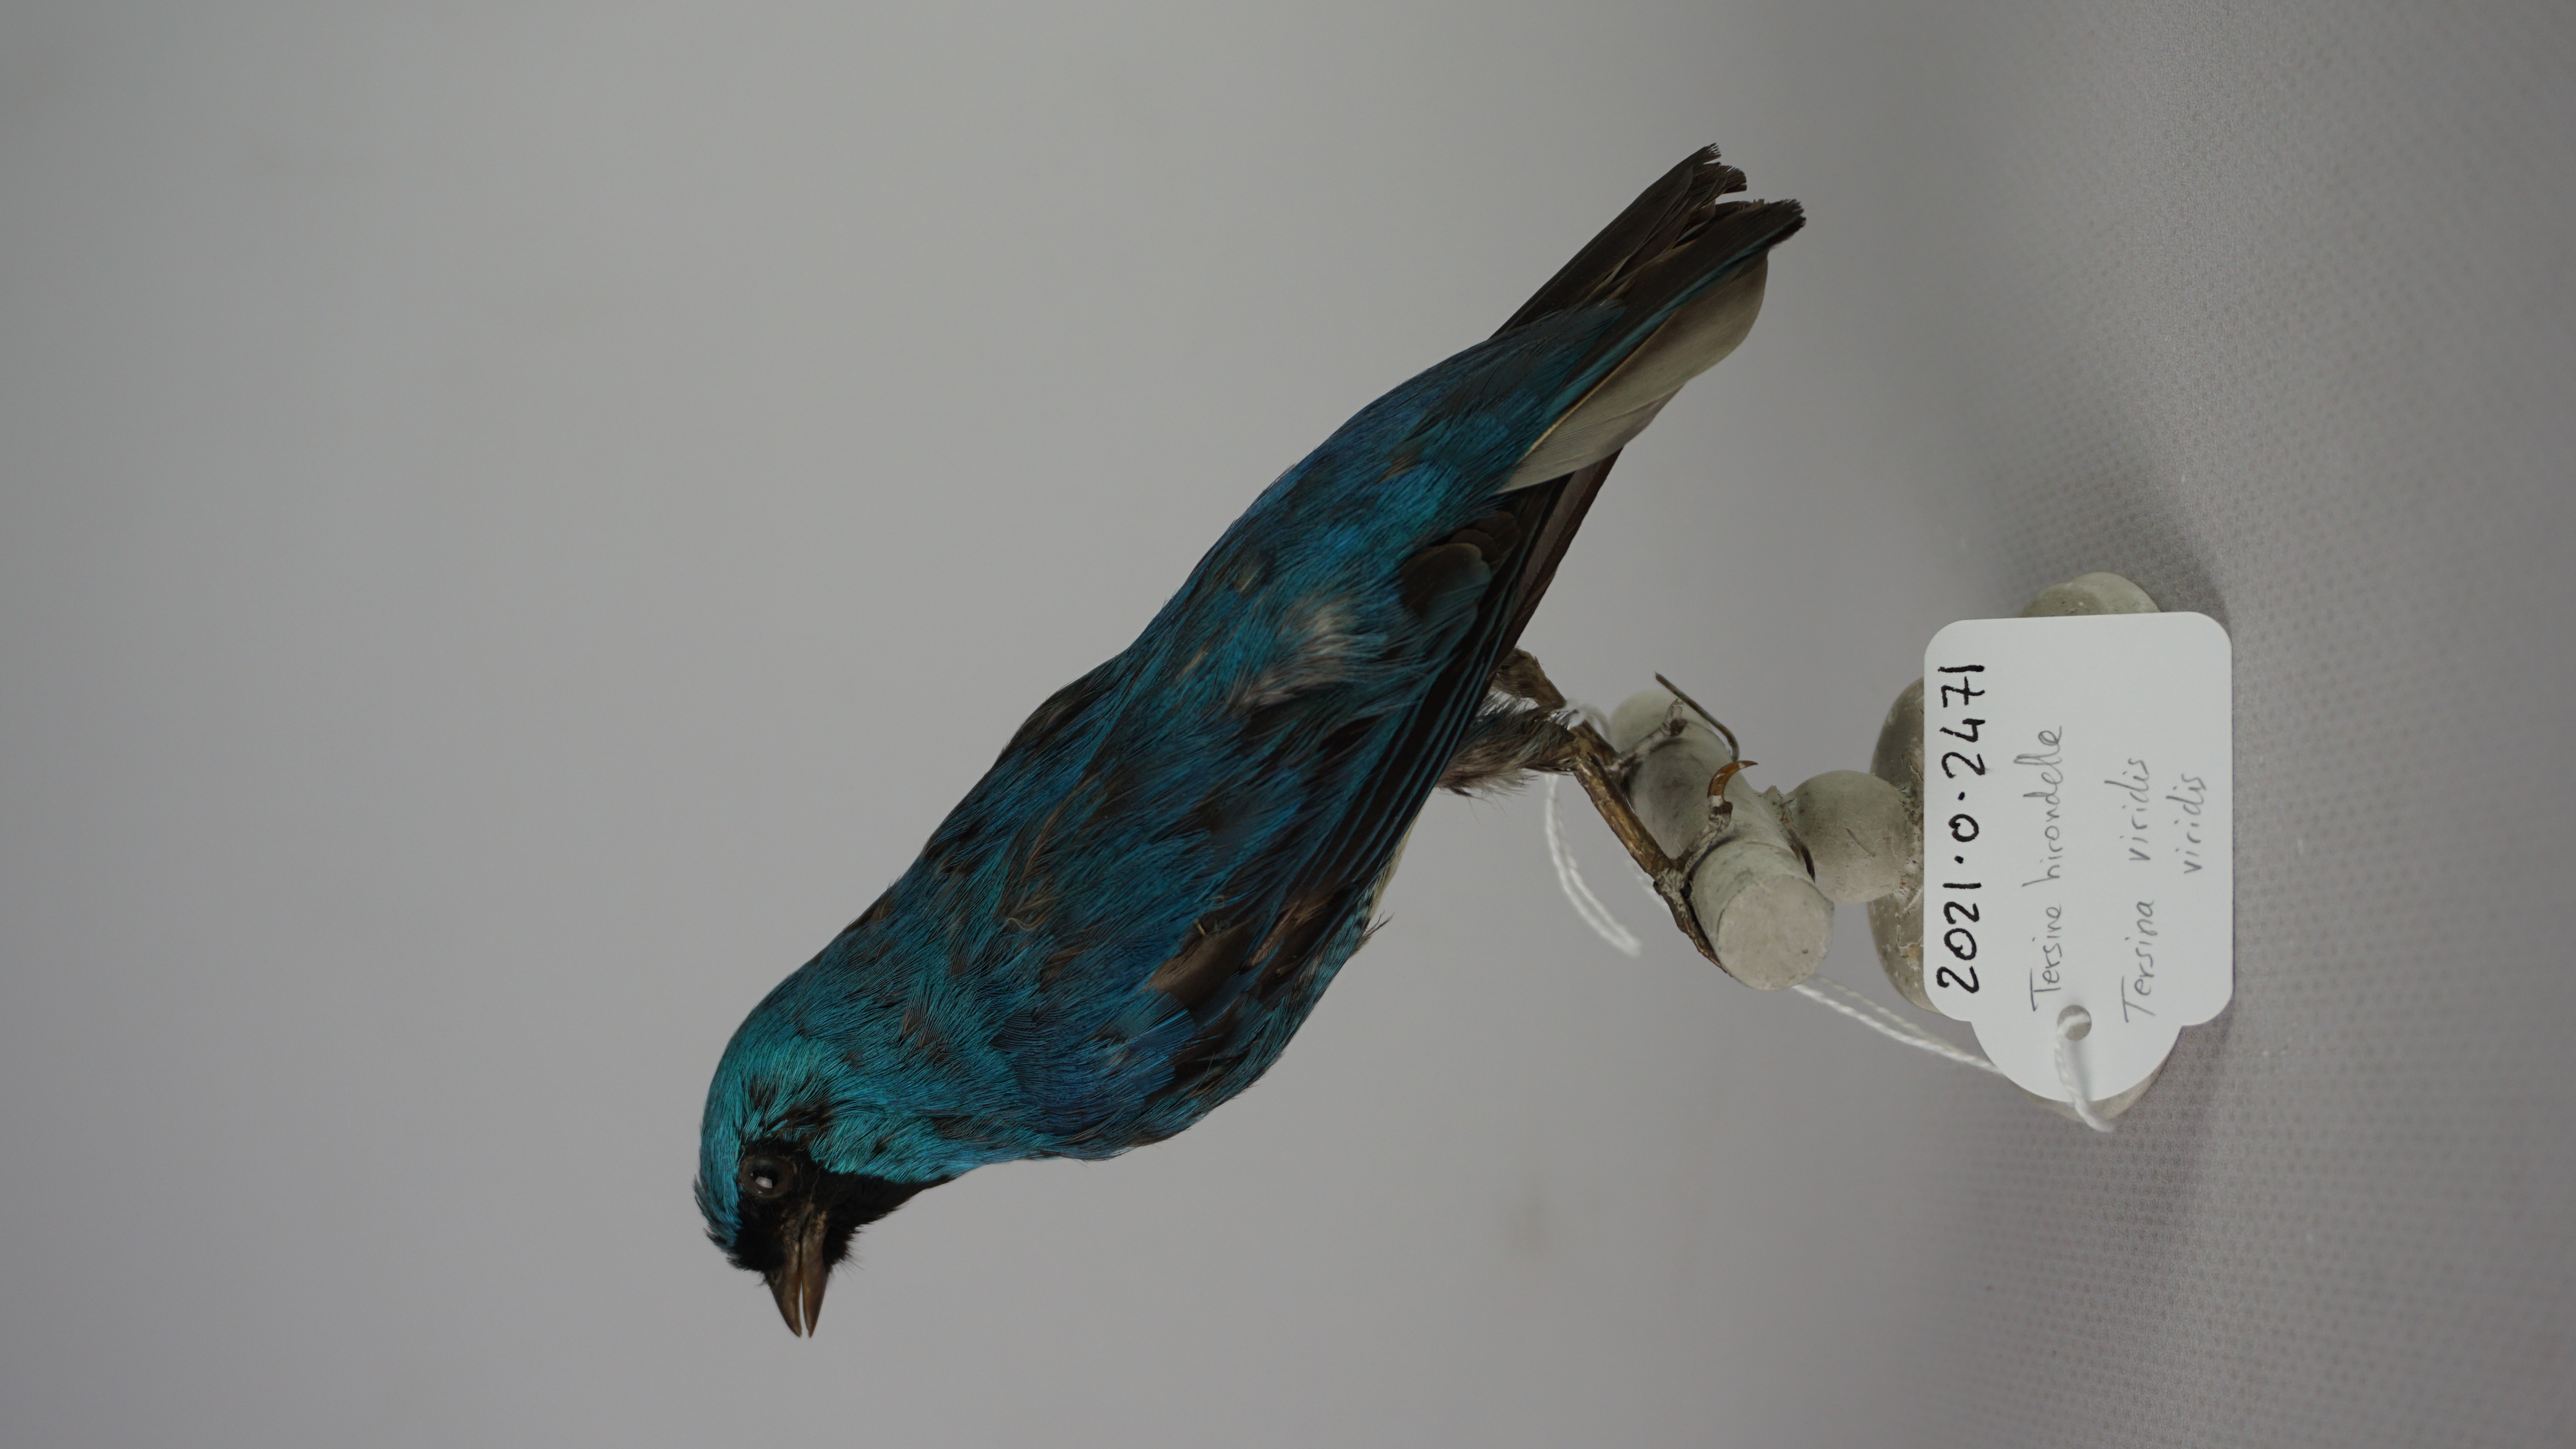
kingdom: Animalia
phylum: Chordata
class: Aves
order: Passeriformes
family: Thraupidae
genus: Tersina
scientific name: Tersina viridis
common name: Swallow tanager
